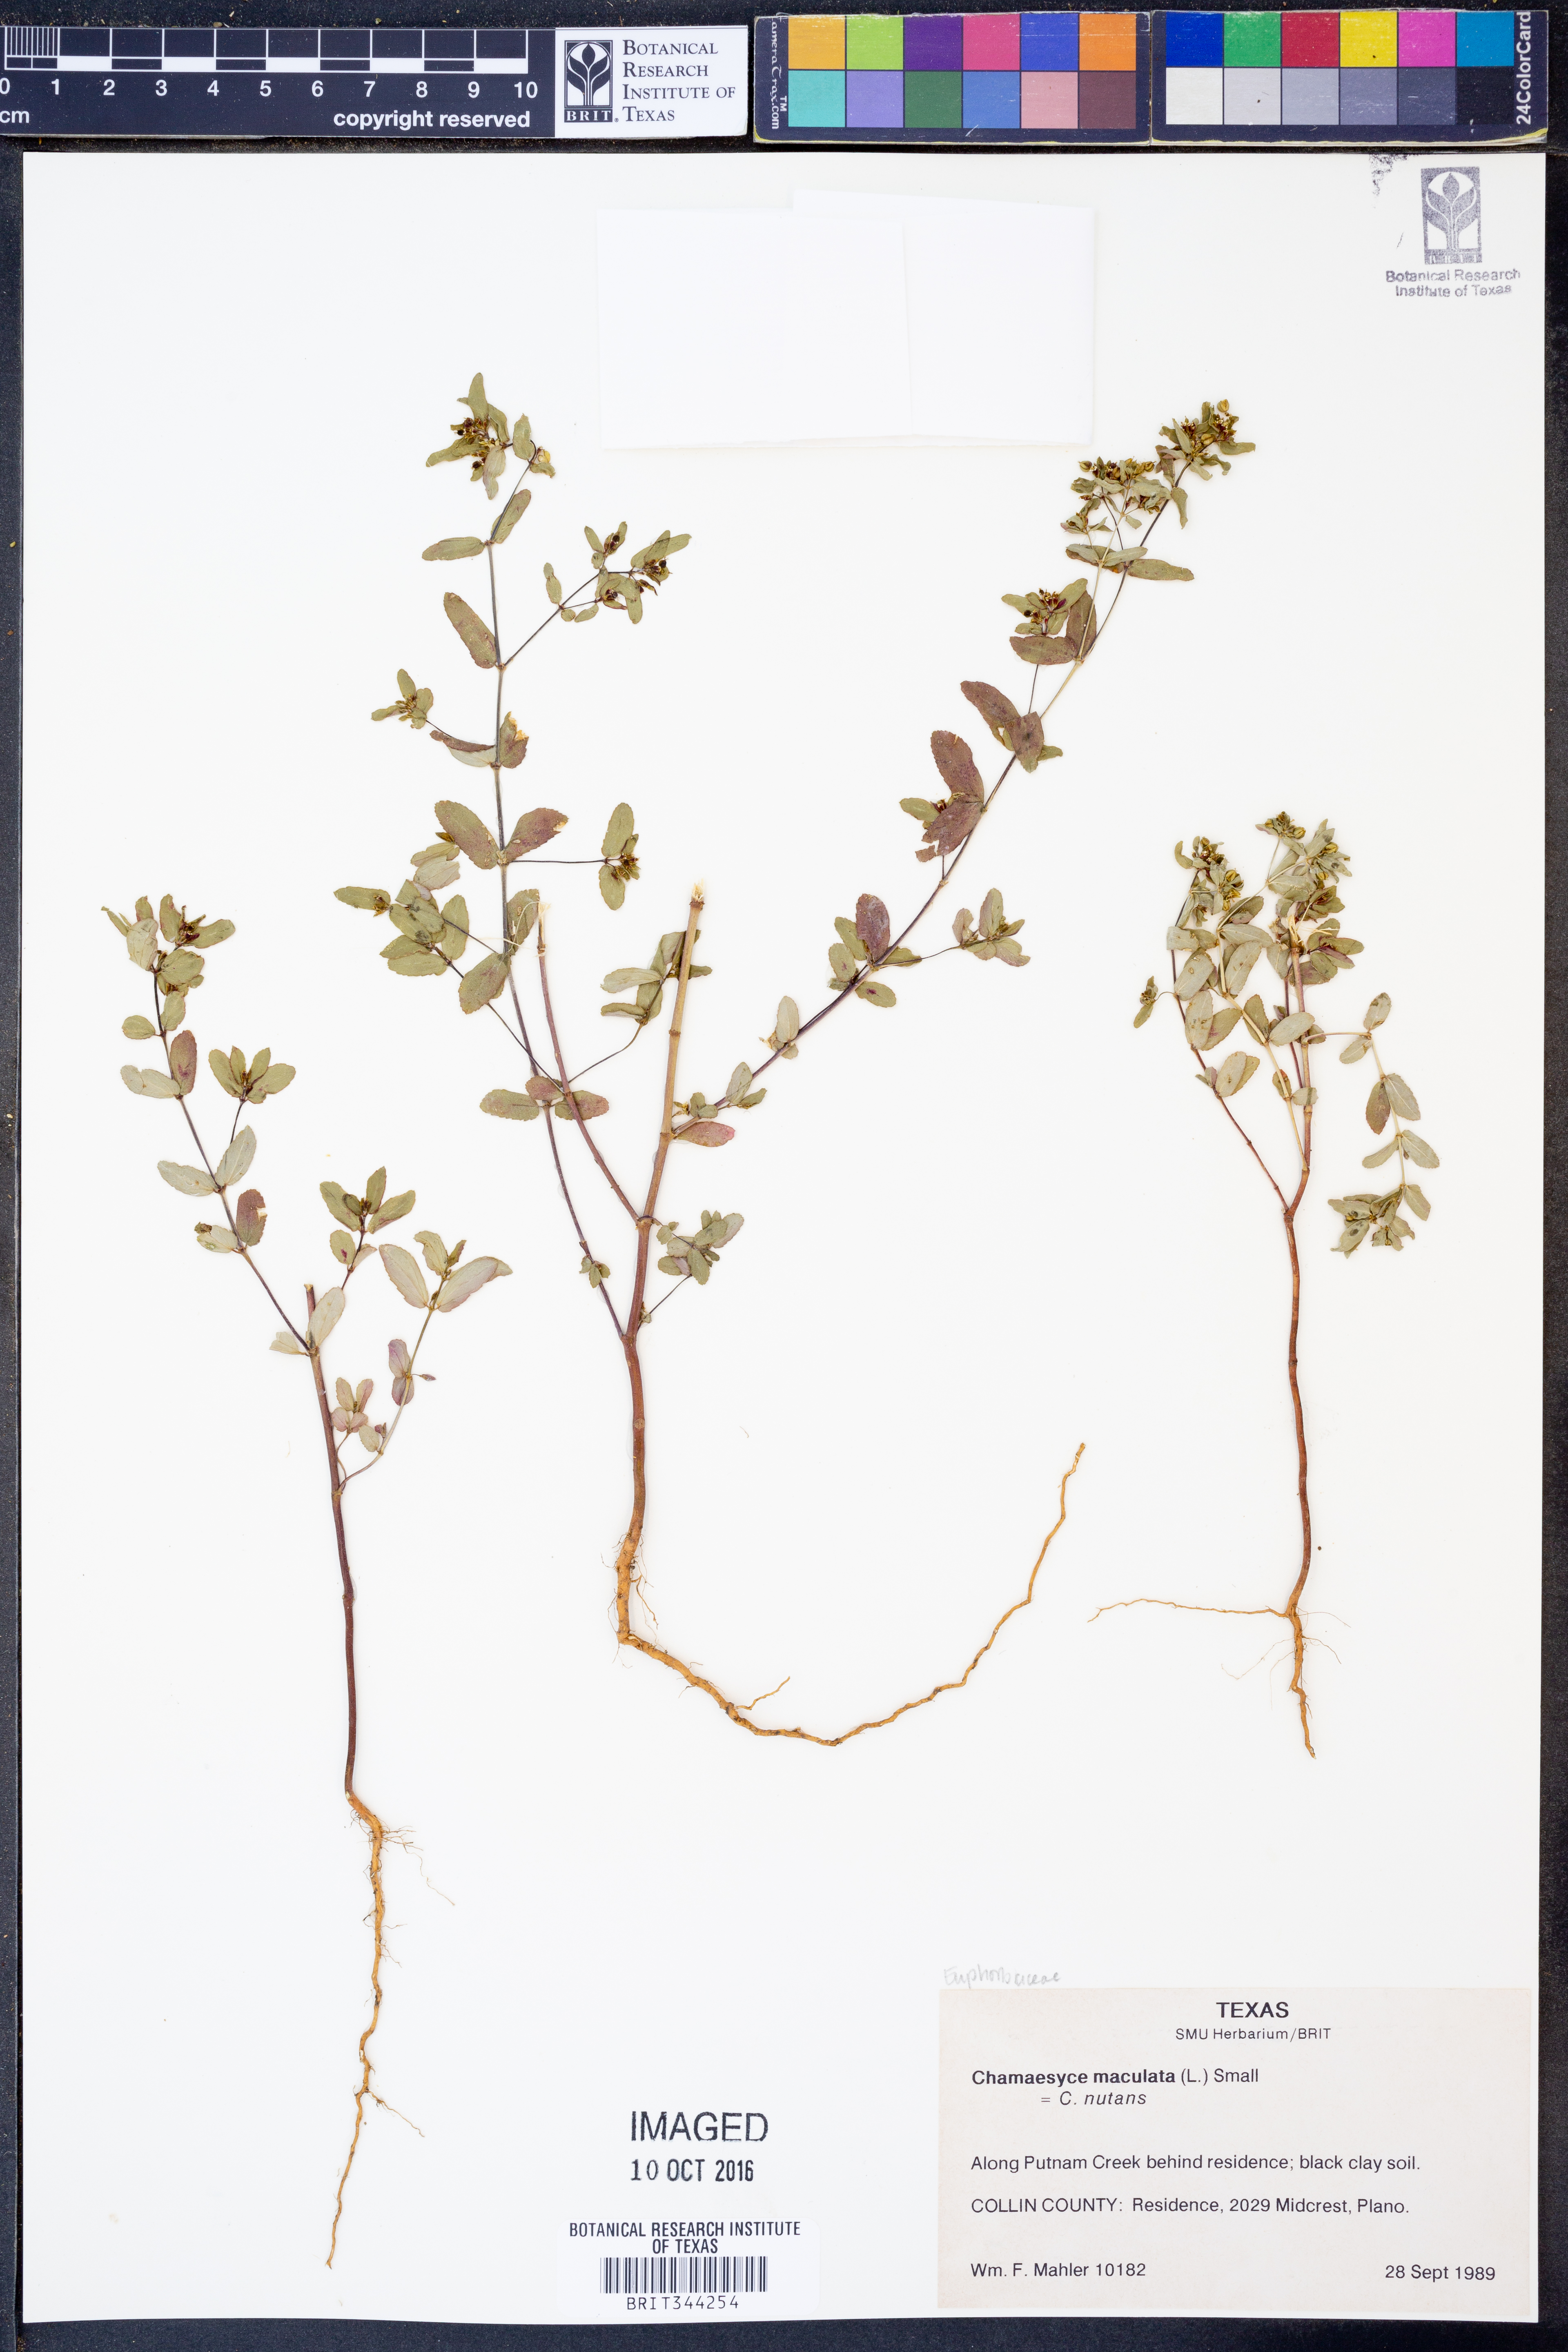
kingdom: Plantae
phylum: Tracheophyta
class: Magnoliopsida
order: Malpighiales
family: Euphorbiaceae
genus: Euphorbia
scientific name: Euphorbia maculata
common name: Spotted spurge
